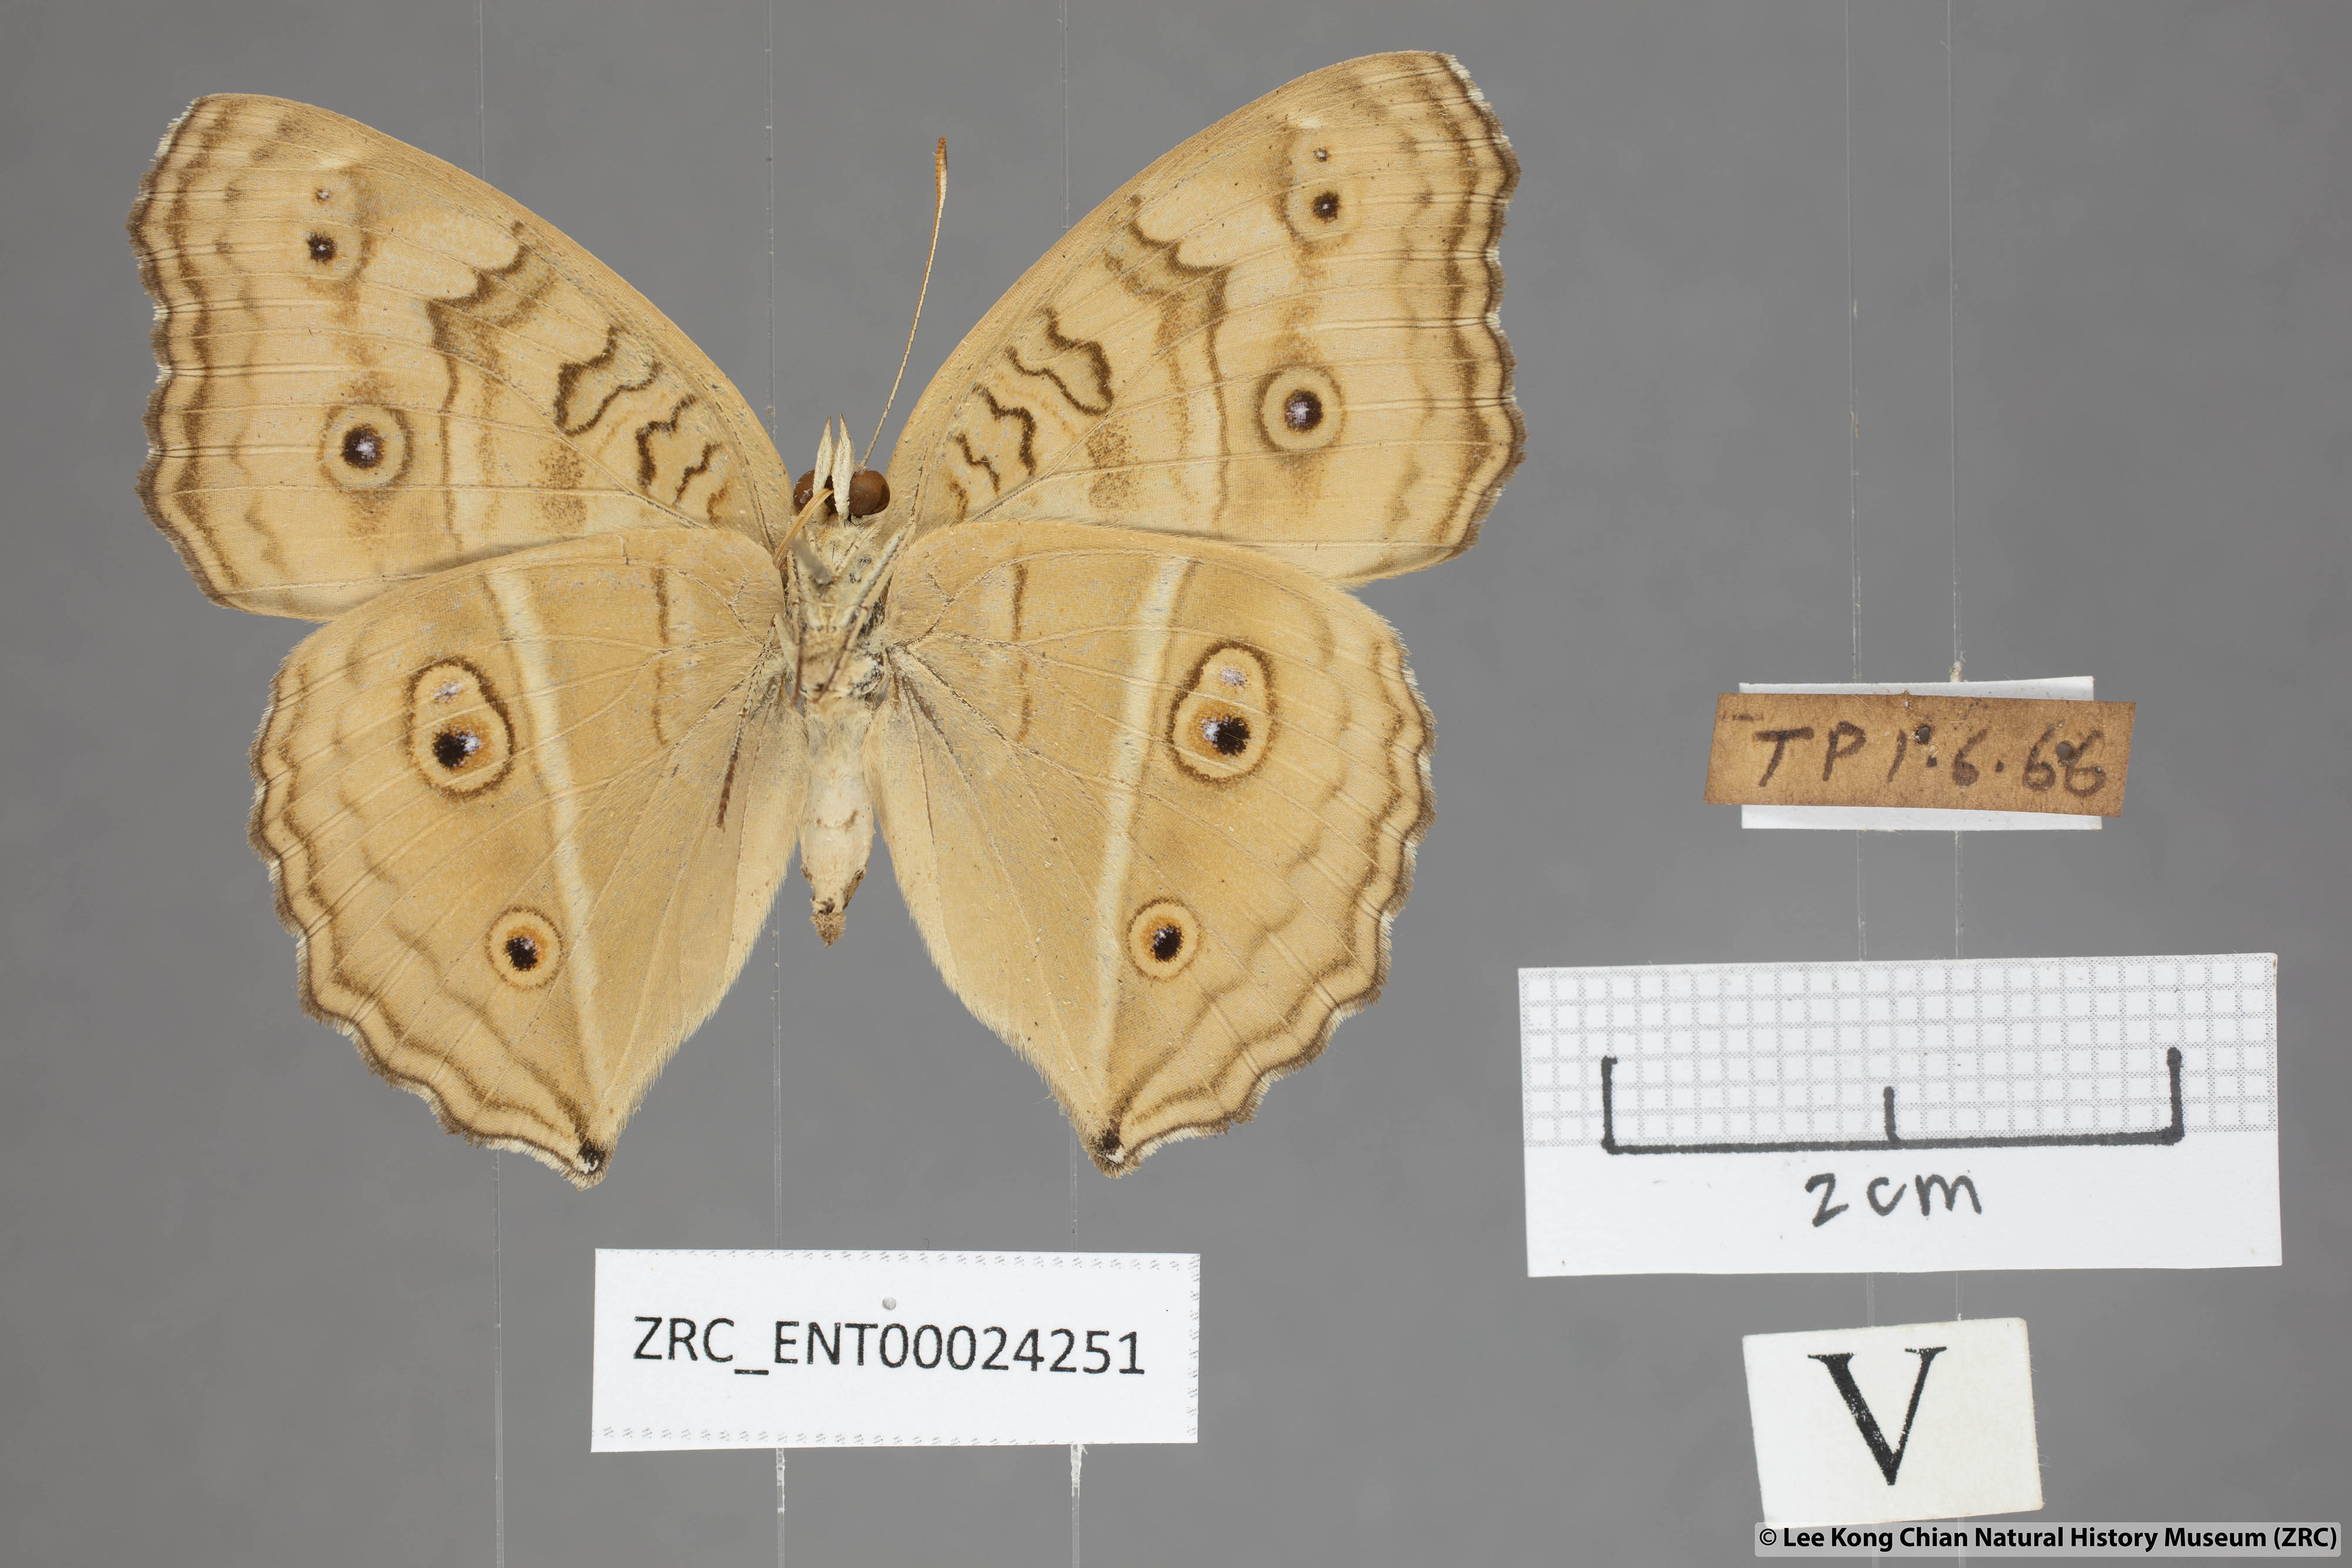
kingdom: Animalia
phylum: Arthropoda
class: Insecta
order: Lepidoptera
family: Nymphalidae
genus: Junonia
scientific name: Junonia almana
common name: Peacock pansy
